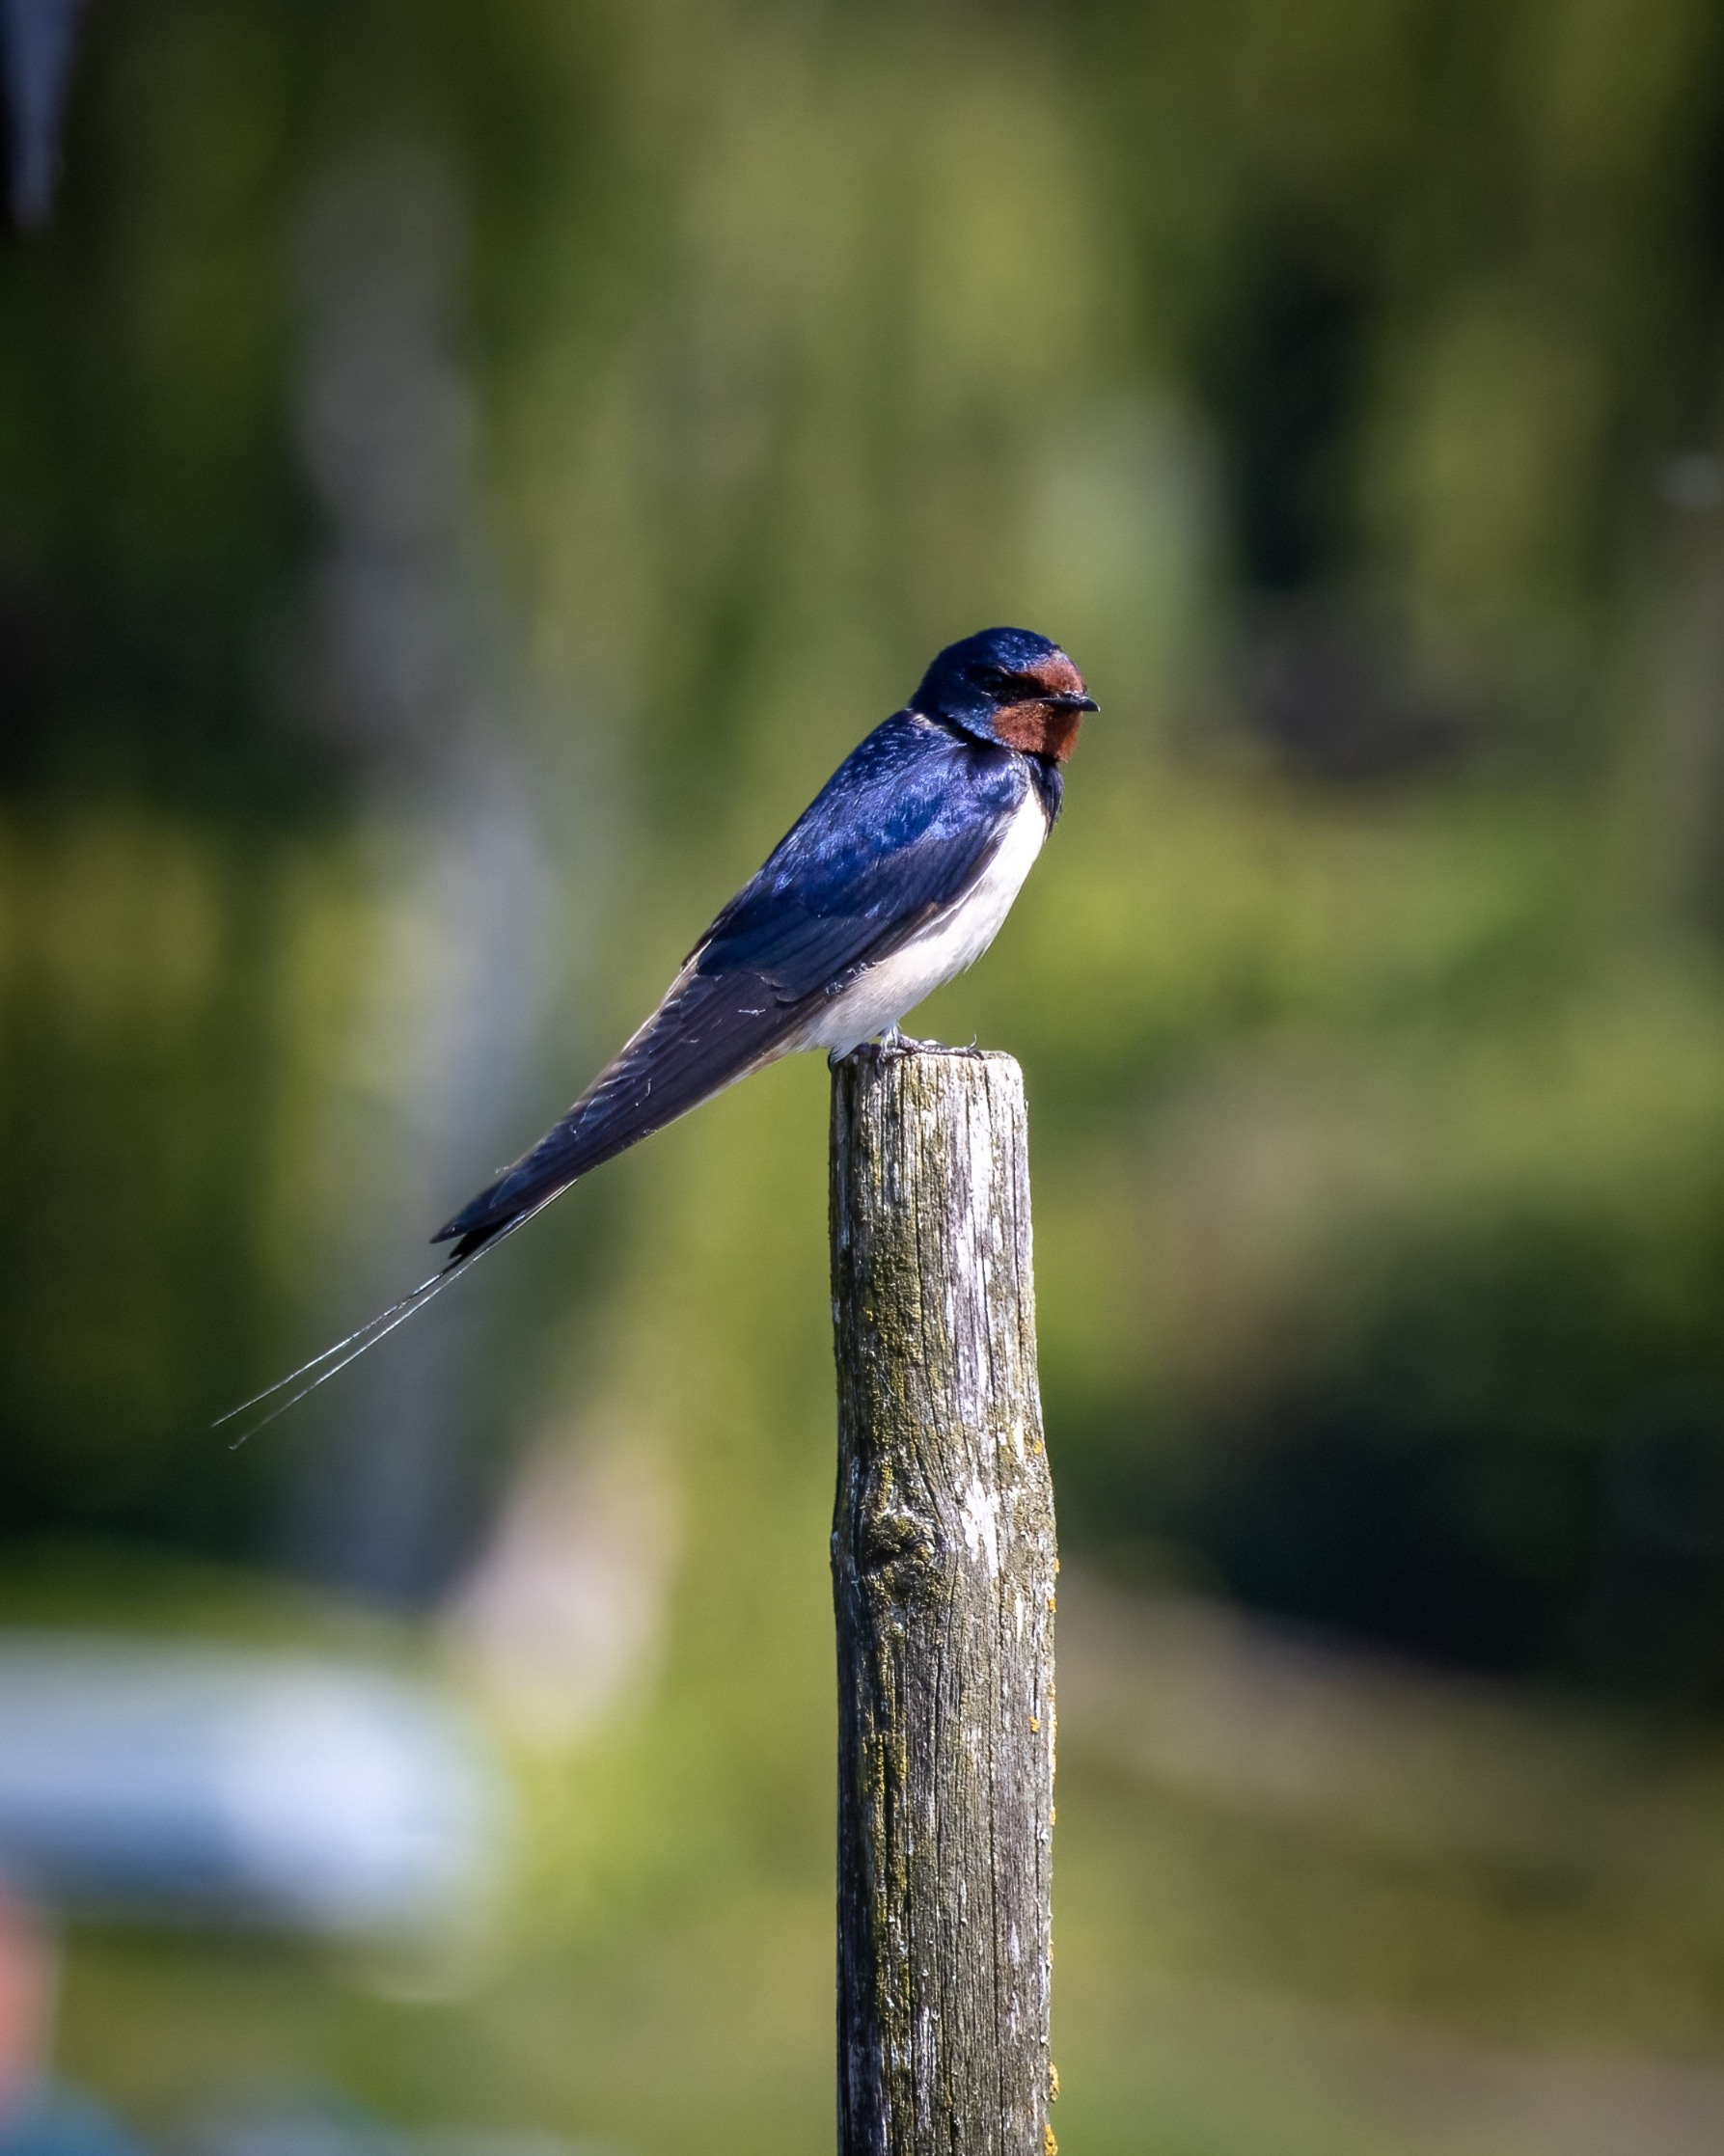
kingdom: Animalia
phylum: Chordata
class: Aves
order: Passeriformes
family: Hirundinidae
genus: Hirundo
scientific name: Hirundo rustica
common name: Landsvale
